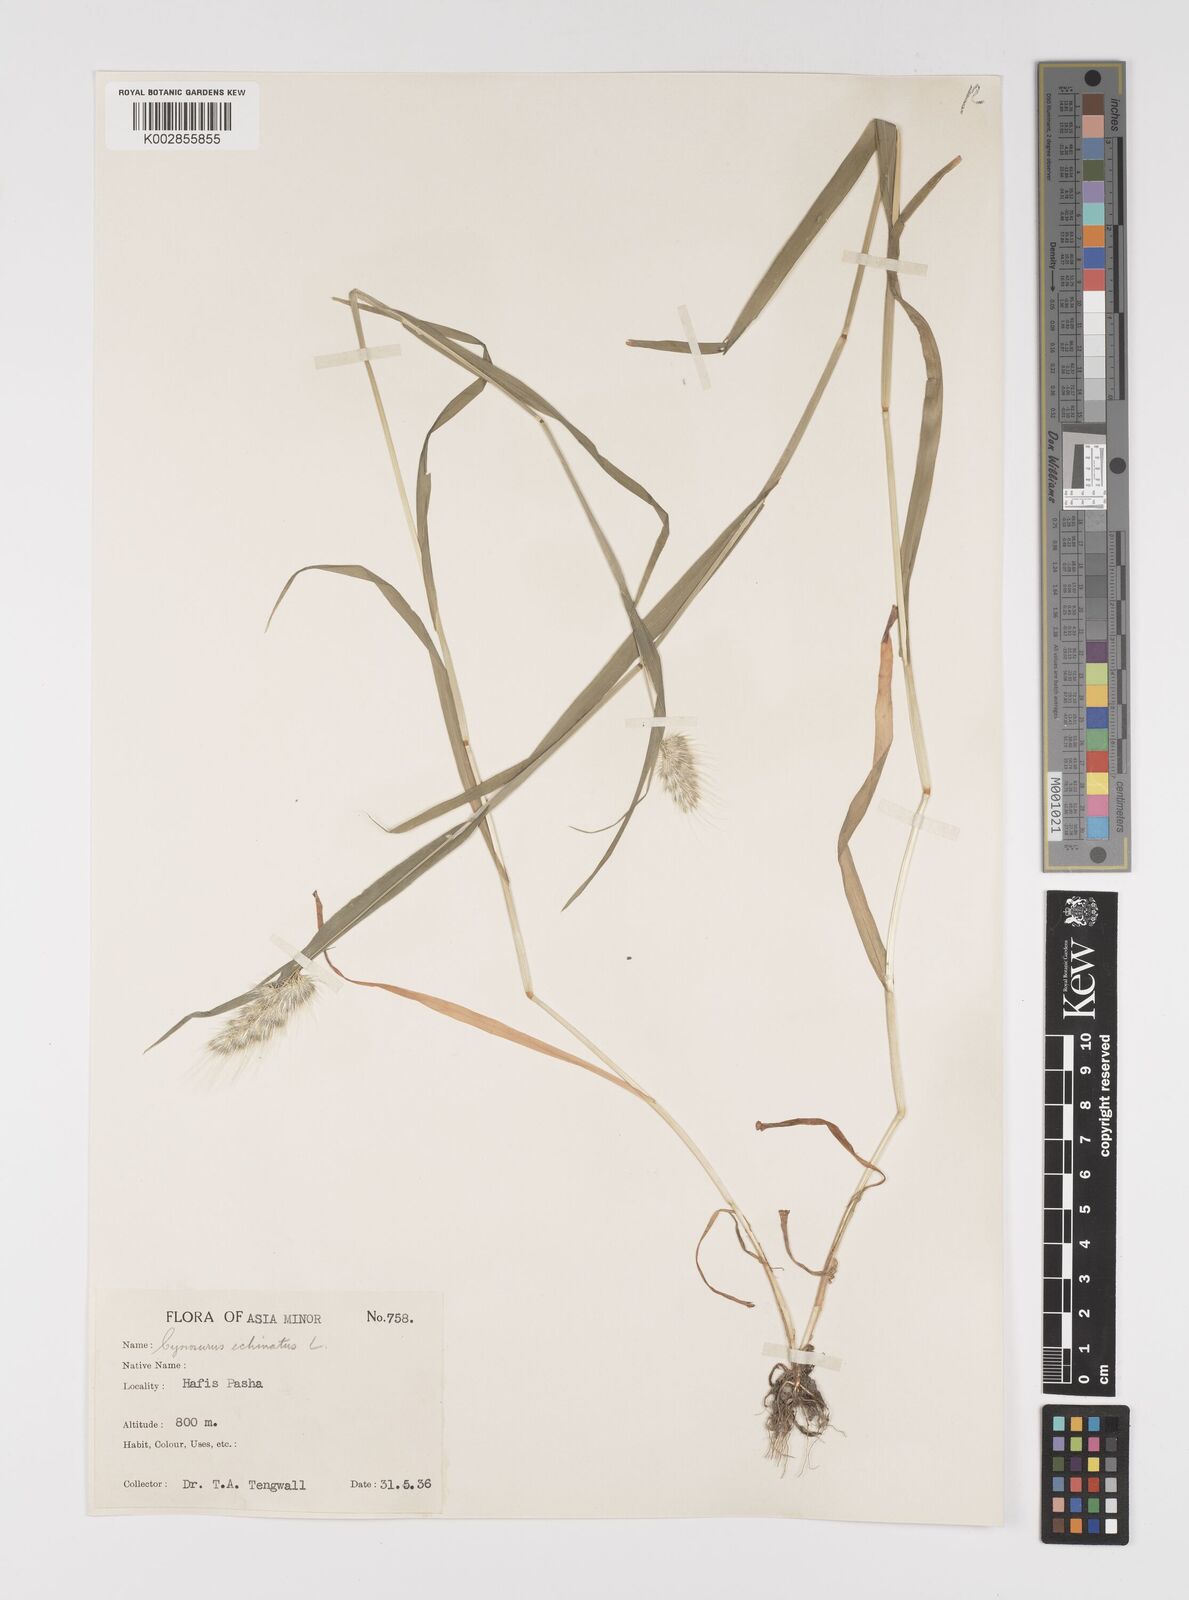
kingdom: Plantae
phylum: Tracheophyta
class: Liliopsida
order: Poales
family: Poaceae
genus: Cynosurus
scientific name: Cynosurus echinatus
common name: Rough dog's-tail
